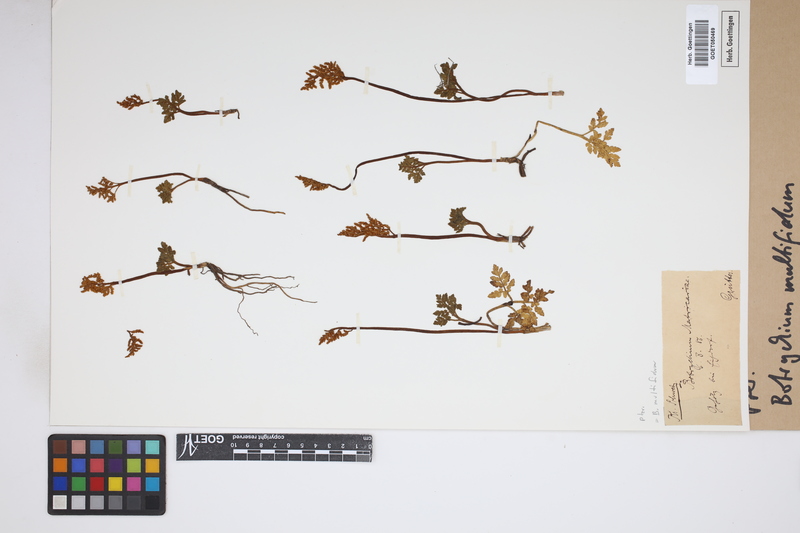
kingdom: Plantae
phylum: Tracheophyta
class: Polypodiopsida
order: Ophioglossales
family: Ophioglossaceae
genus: Sceptridium
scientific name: Sceptridium multifidum
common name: Leathery grape fern
